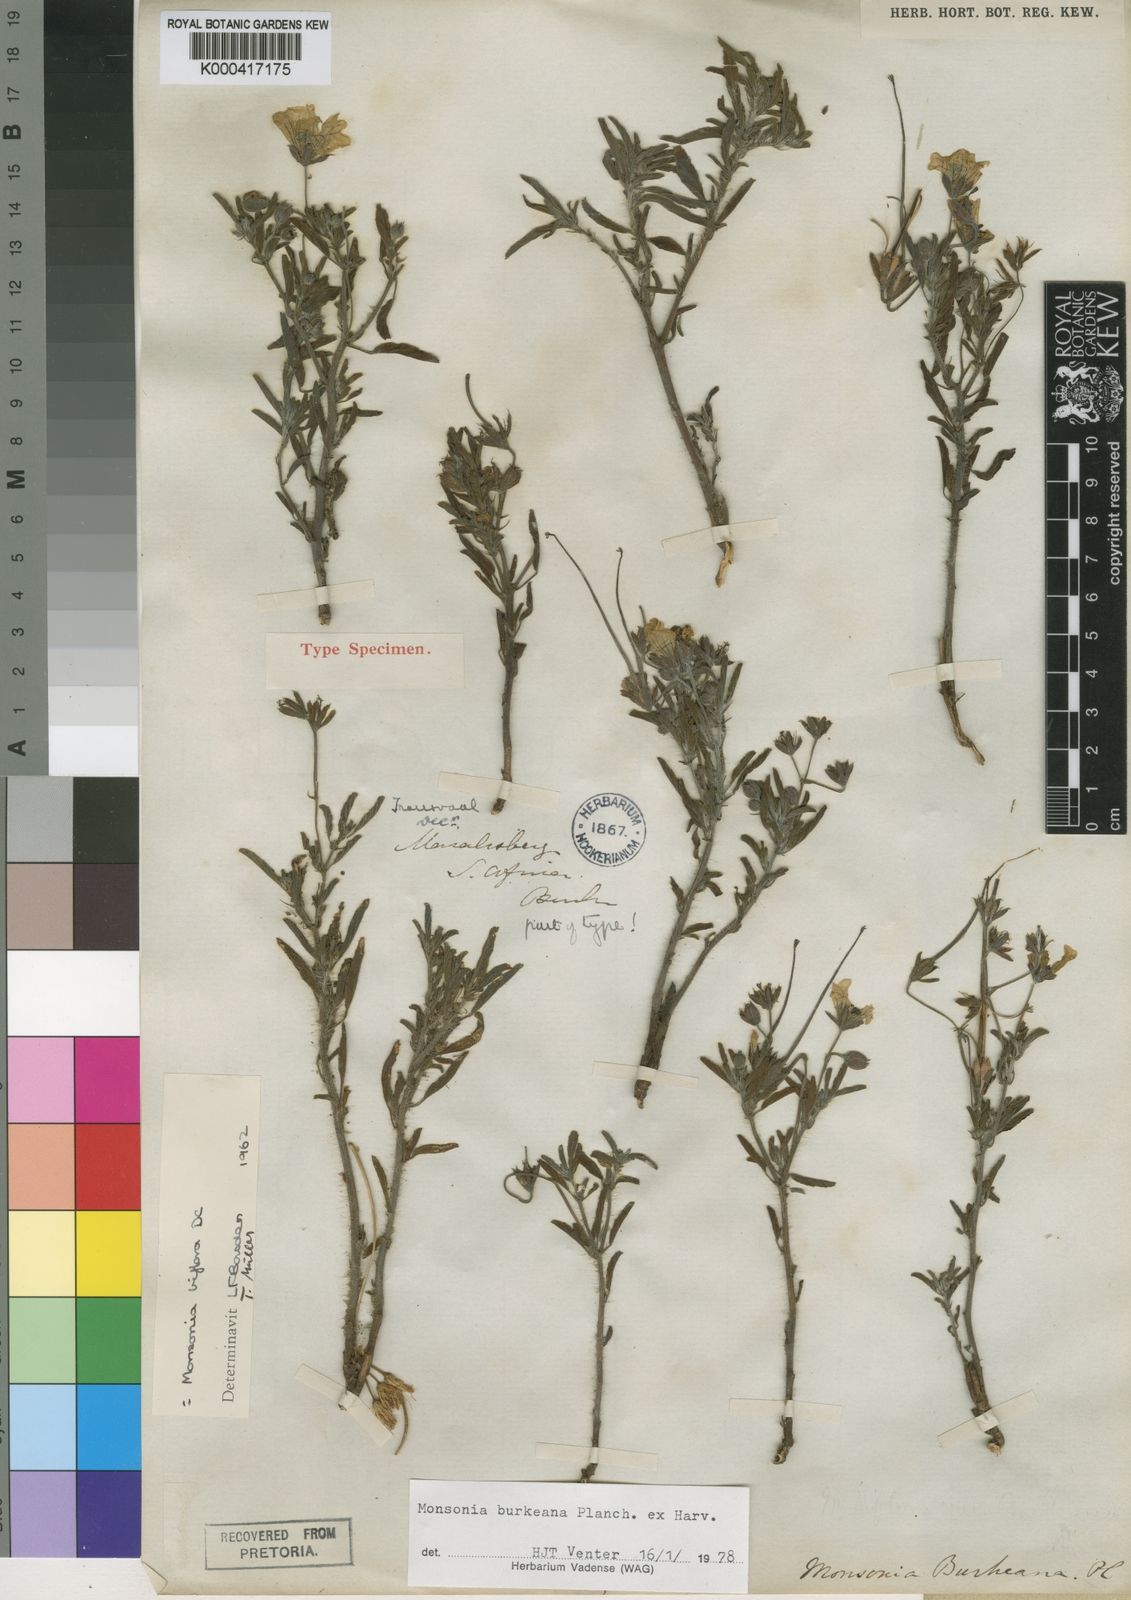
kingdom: Plantae
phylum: Tracheophyta
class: Magnoliopsida
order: Geraniales
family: Geraniaceae
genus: Monsonia
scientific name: Monsonia biflora
